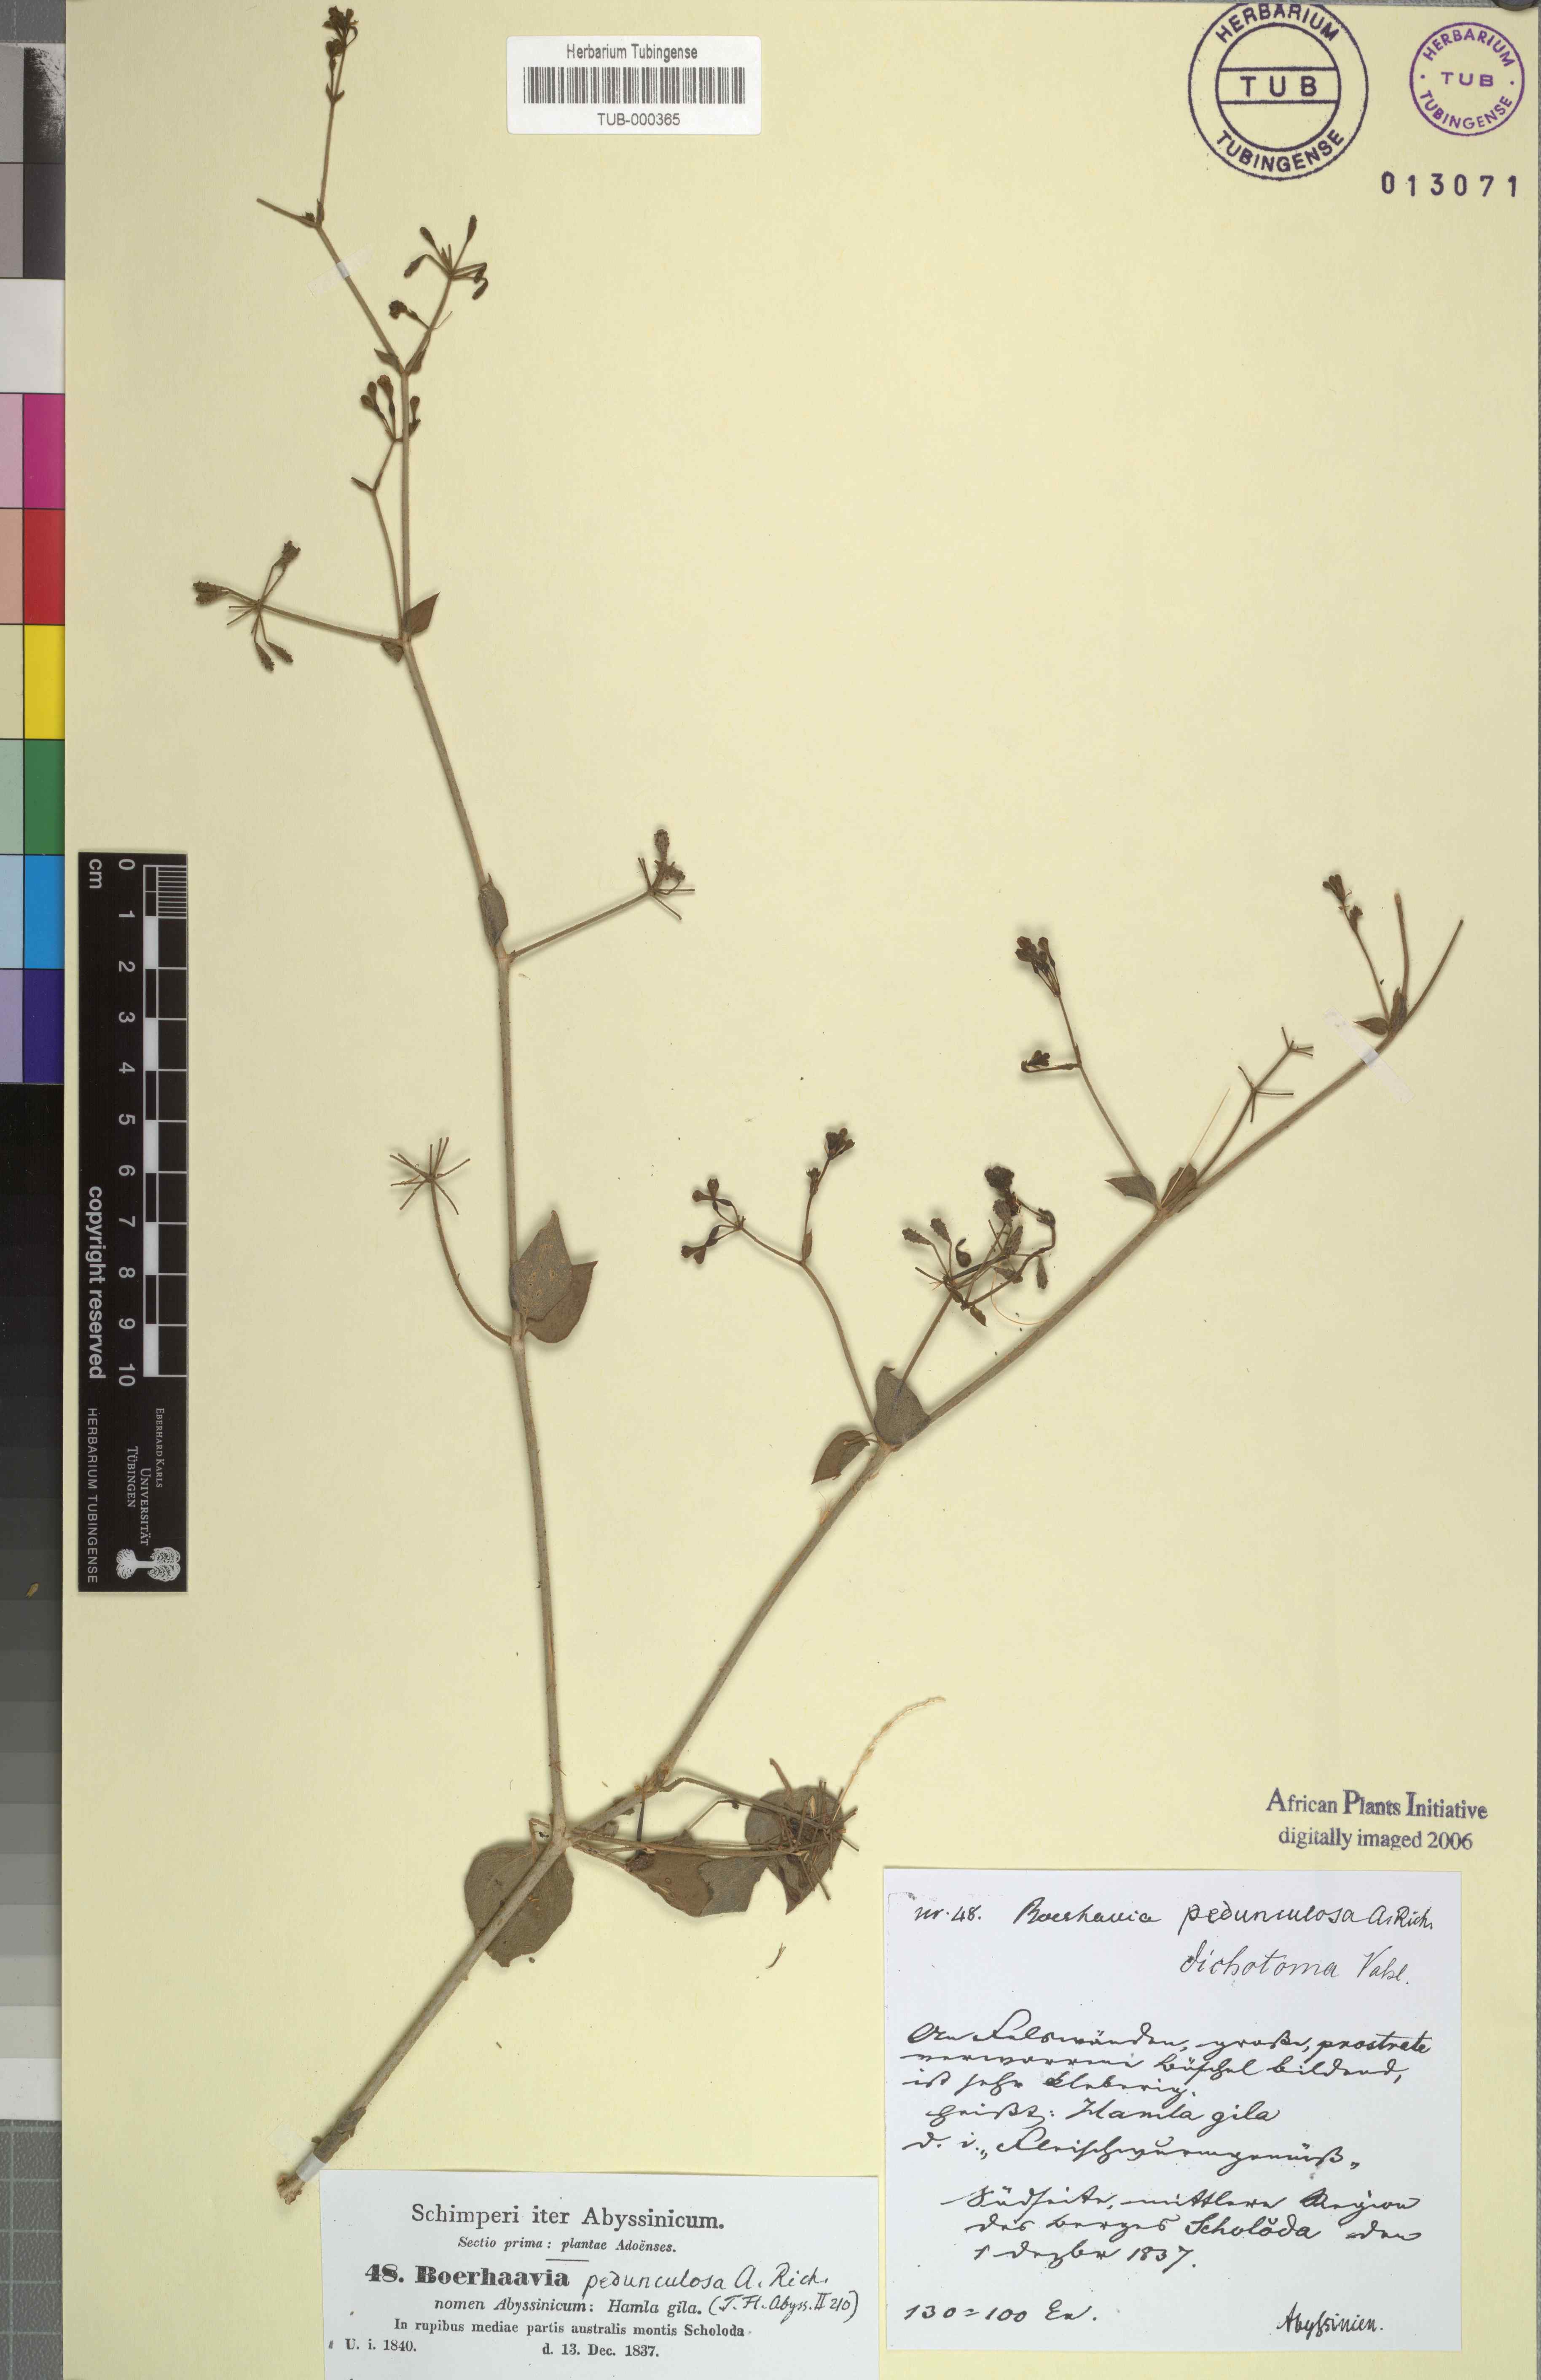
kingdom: Plantae
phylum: Tracheophyta
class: Magnoliopsida
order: Caryophyllales
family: Nyctaginaceae
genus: Commicarpus
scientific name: Commicarpus pedunculosus
